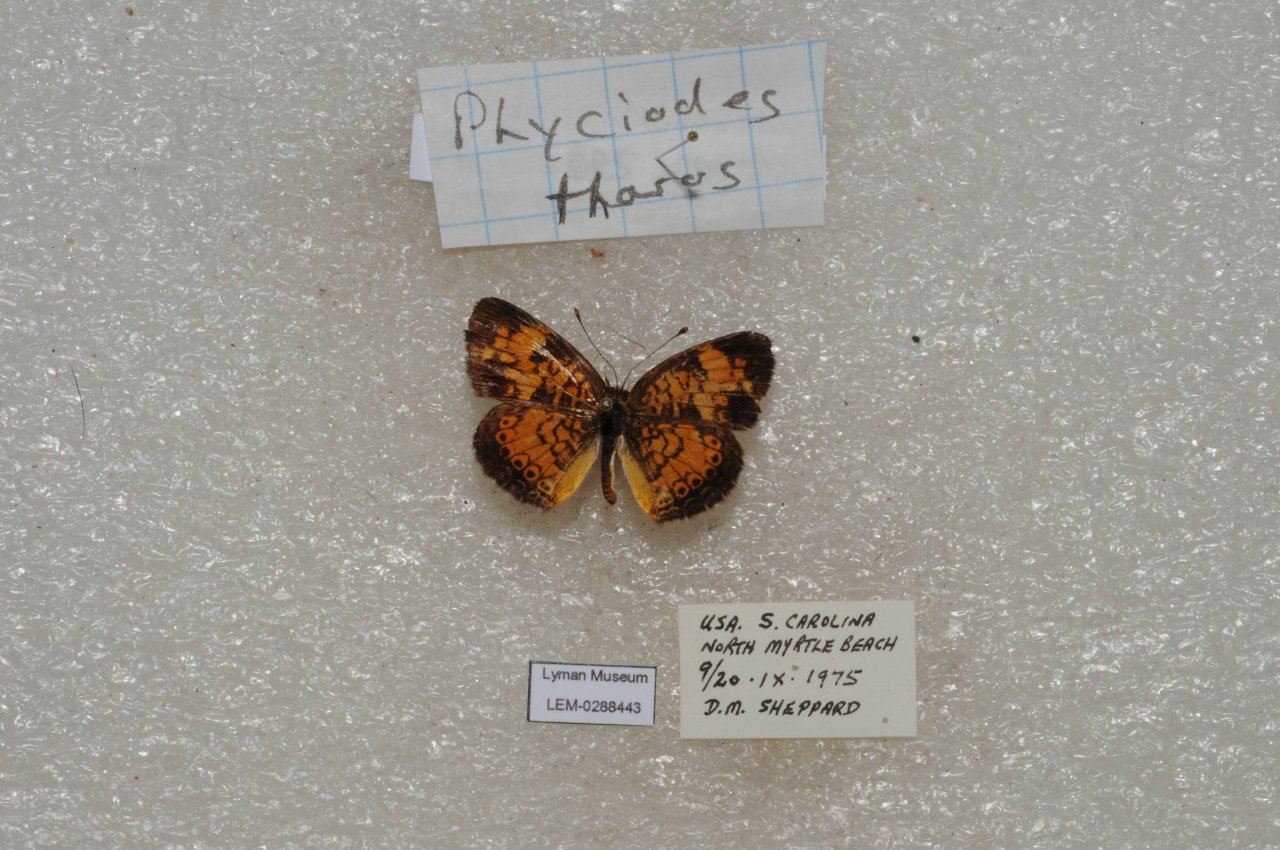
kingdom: Animalia
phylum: Arthropoda
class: Insecta
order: Lepidoptera
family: Nymphalidae
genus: Phyciodes
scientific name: Phyciodes tharos
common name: Pearl Crescent
